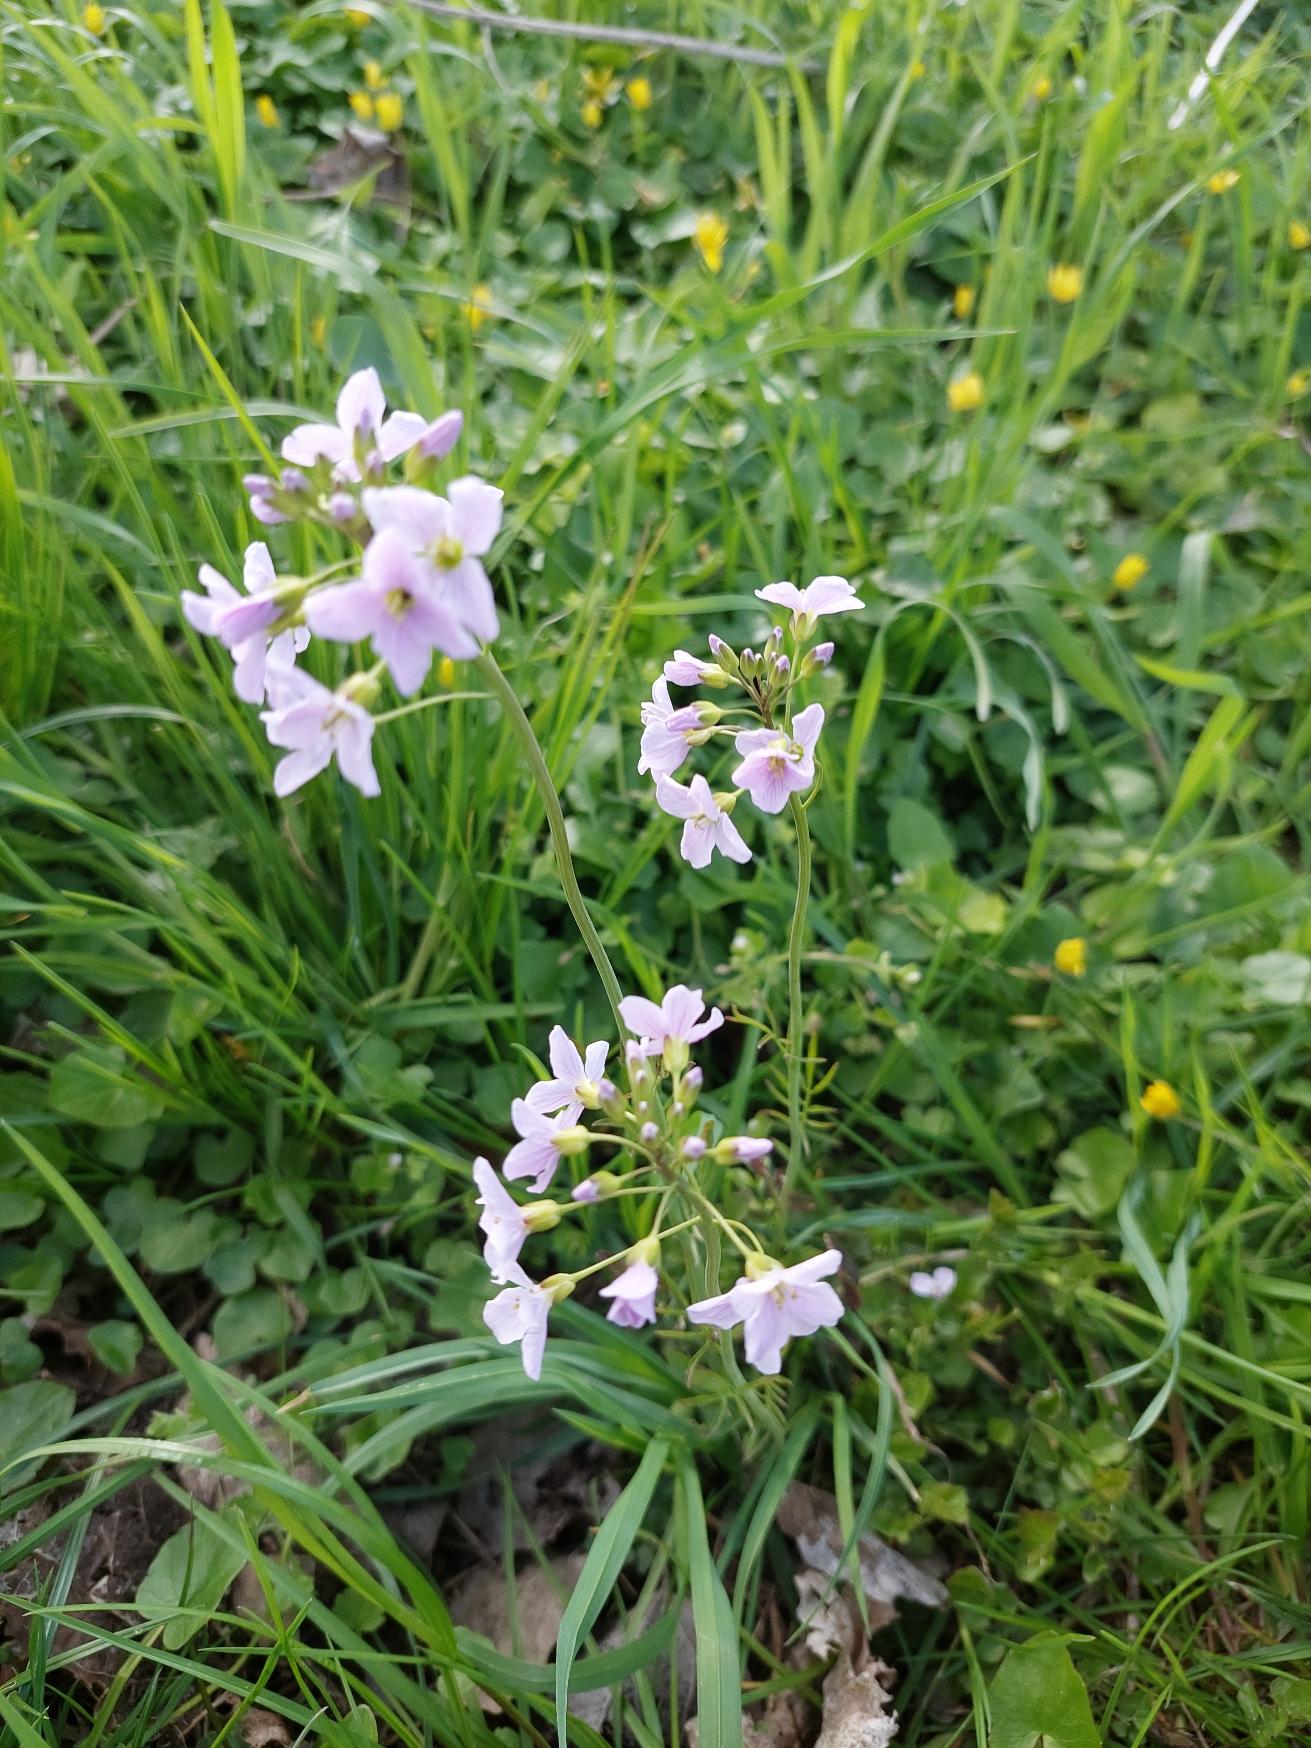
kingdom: Plantae
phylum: Tracheophyta
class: Magnoliopsida
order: Brassicales
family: Brassicaceae
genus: Cardamine
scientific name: Cardamine pratensis
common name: Engkarse
